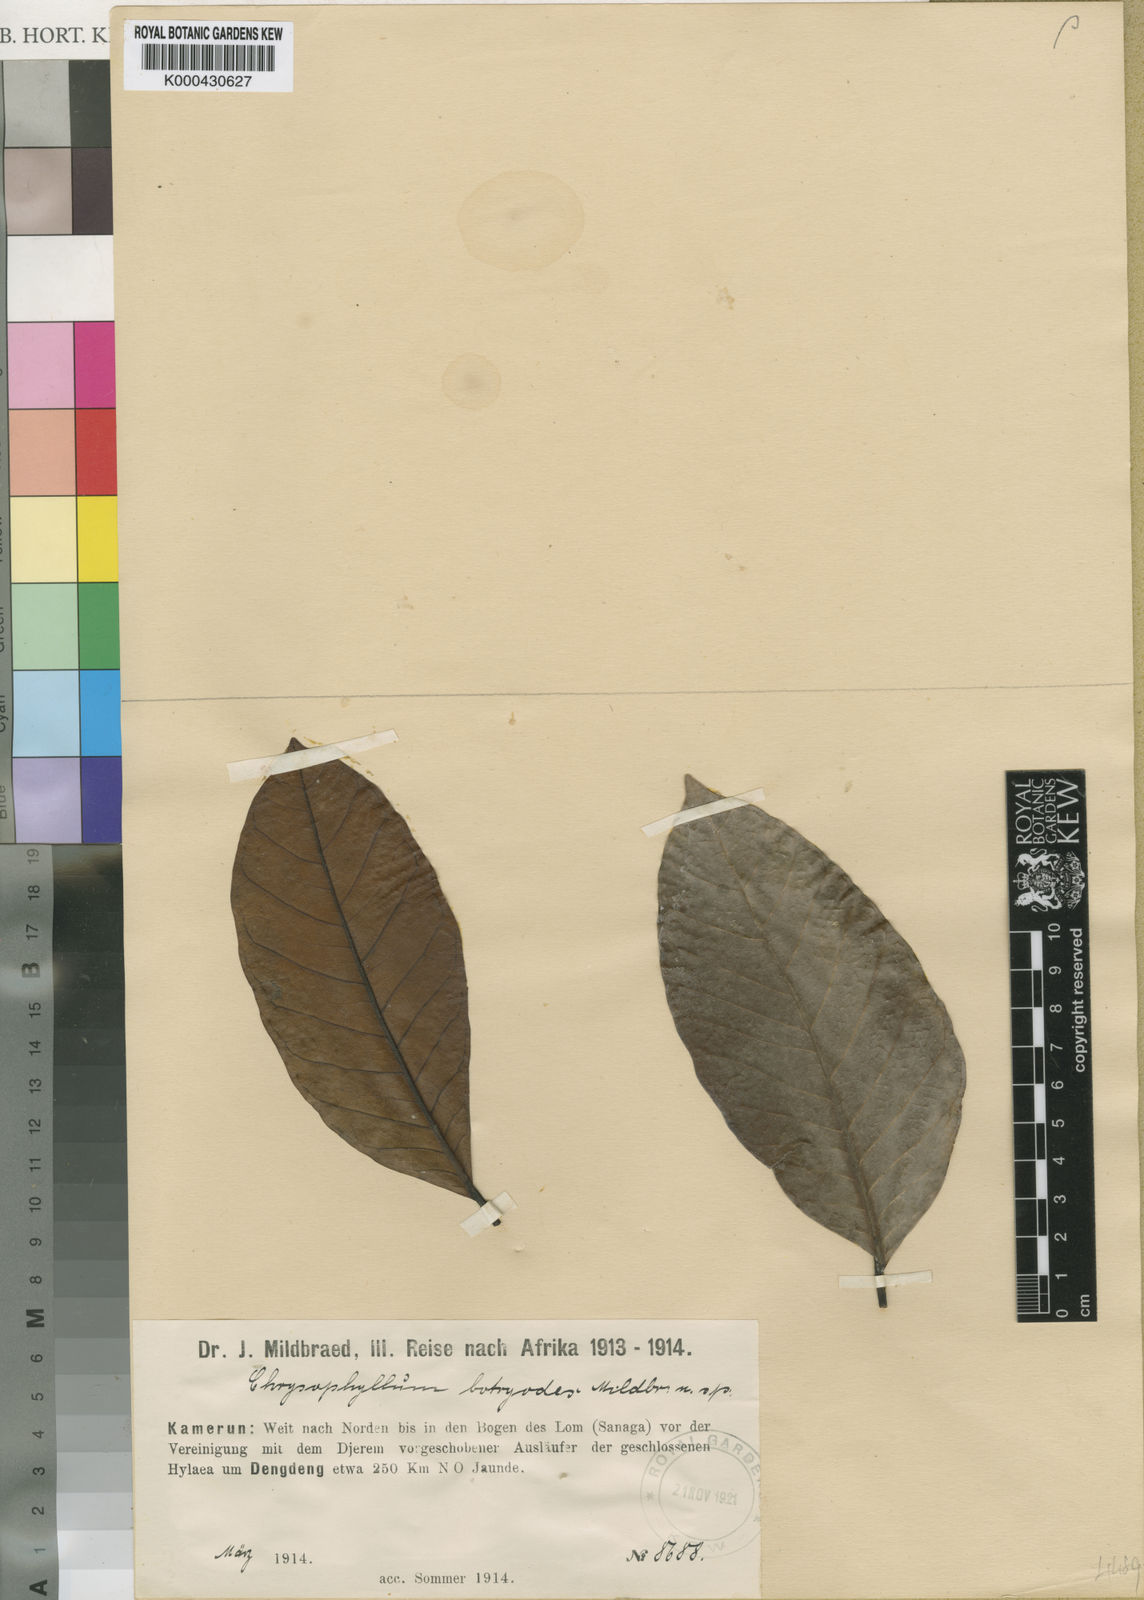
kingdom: Plantae
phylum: Tracheophyta
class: Magnoliopsida
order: Ericales
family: Sapotaceae
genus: Chrysophyllum
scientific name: Chrysophyllum
